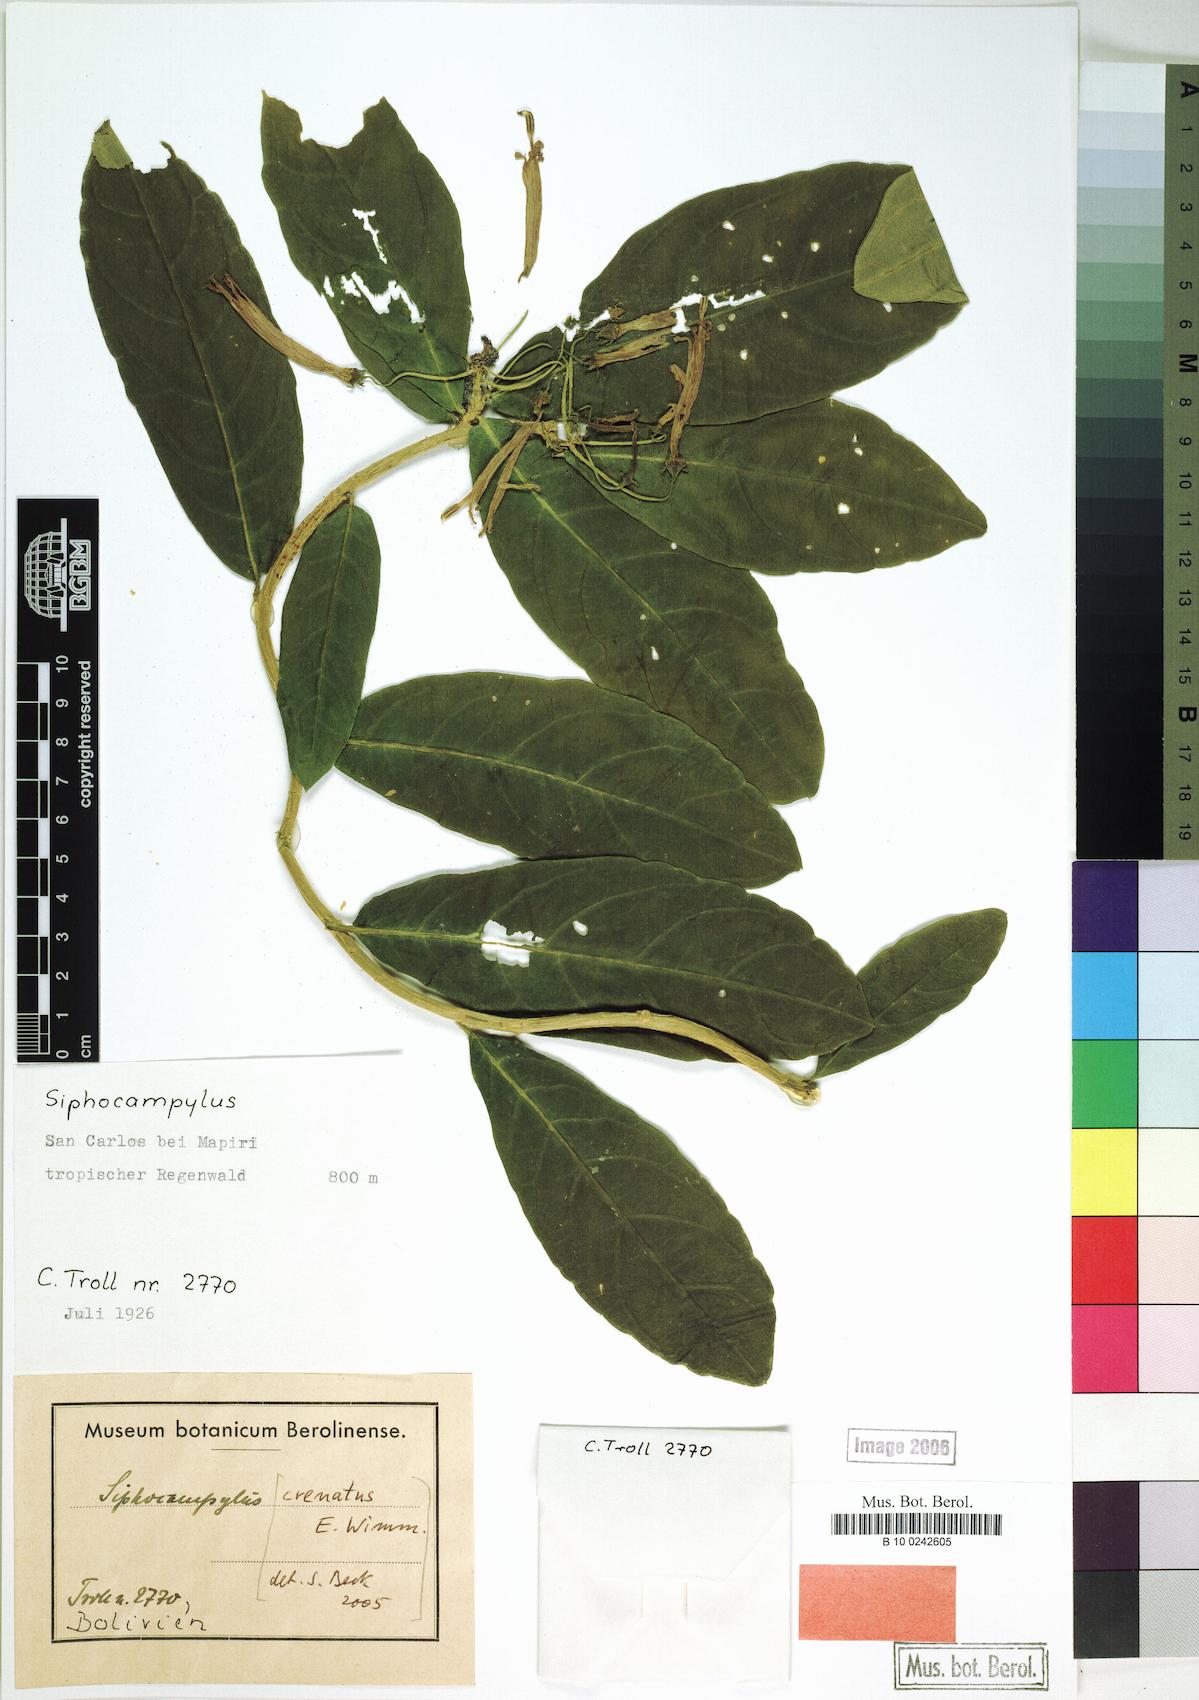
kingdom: Plantae
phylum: Tracheophyta
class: Magnoliopsida
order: Asterales
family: Campanulaceae
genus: Siphocampylus
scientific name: Siphocampylus crenatus
